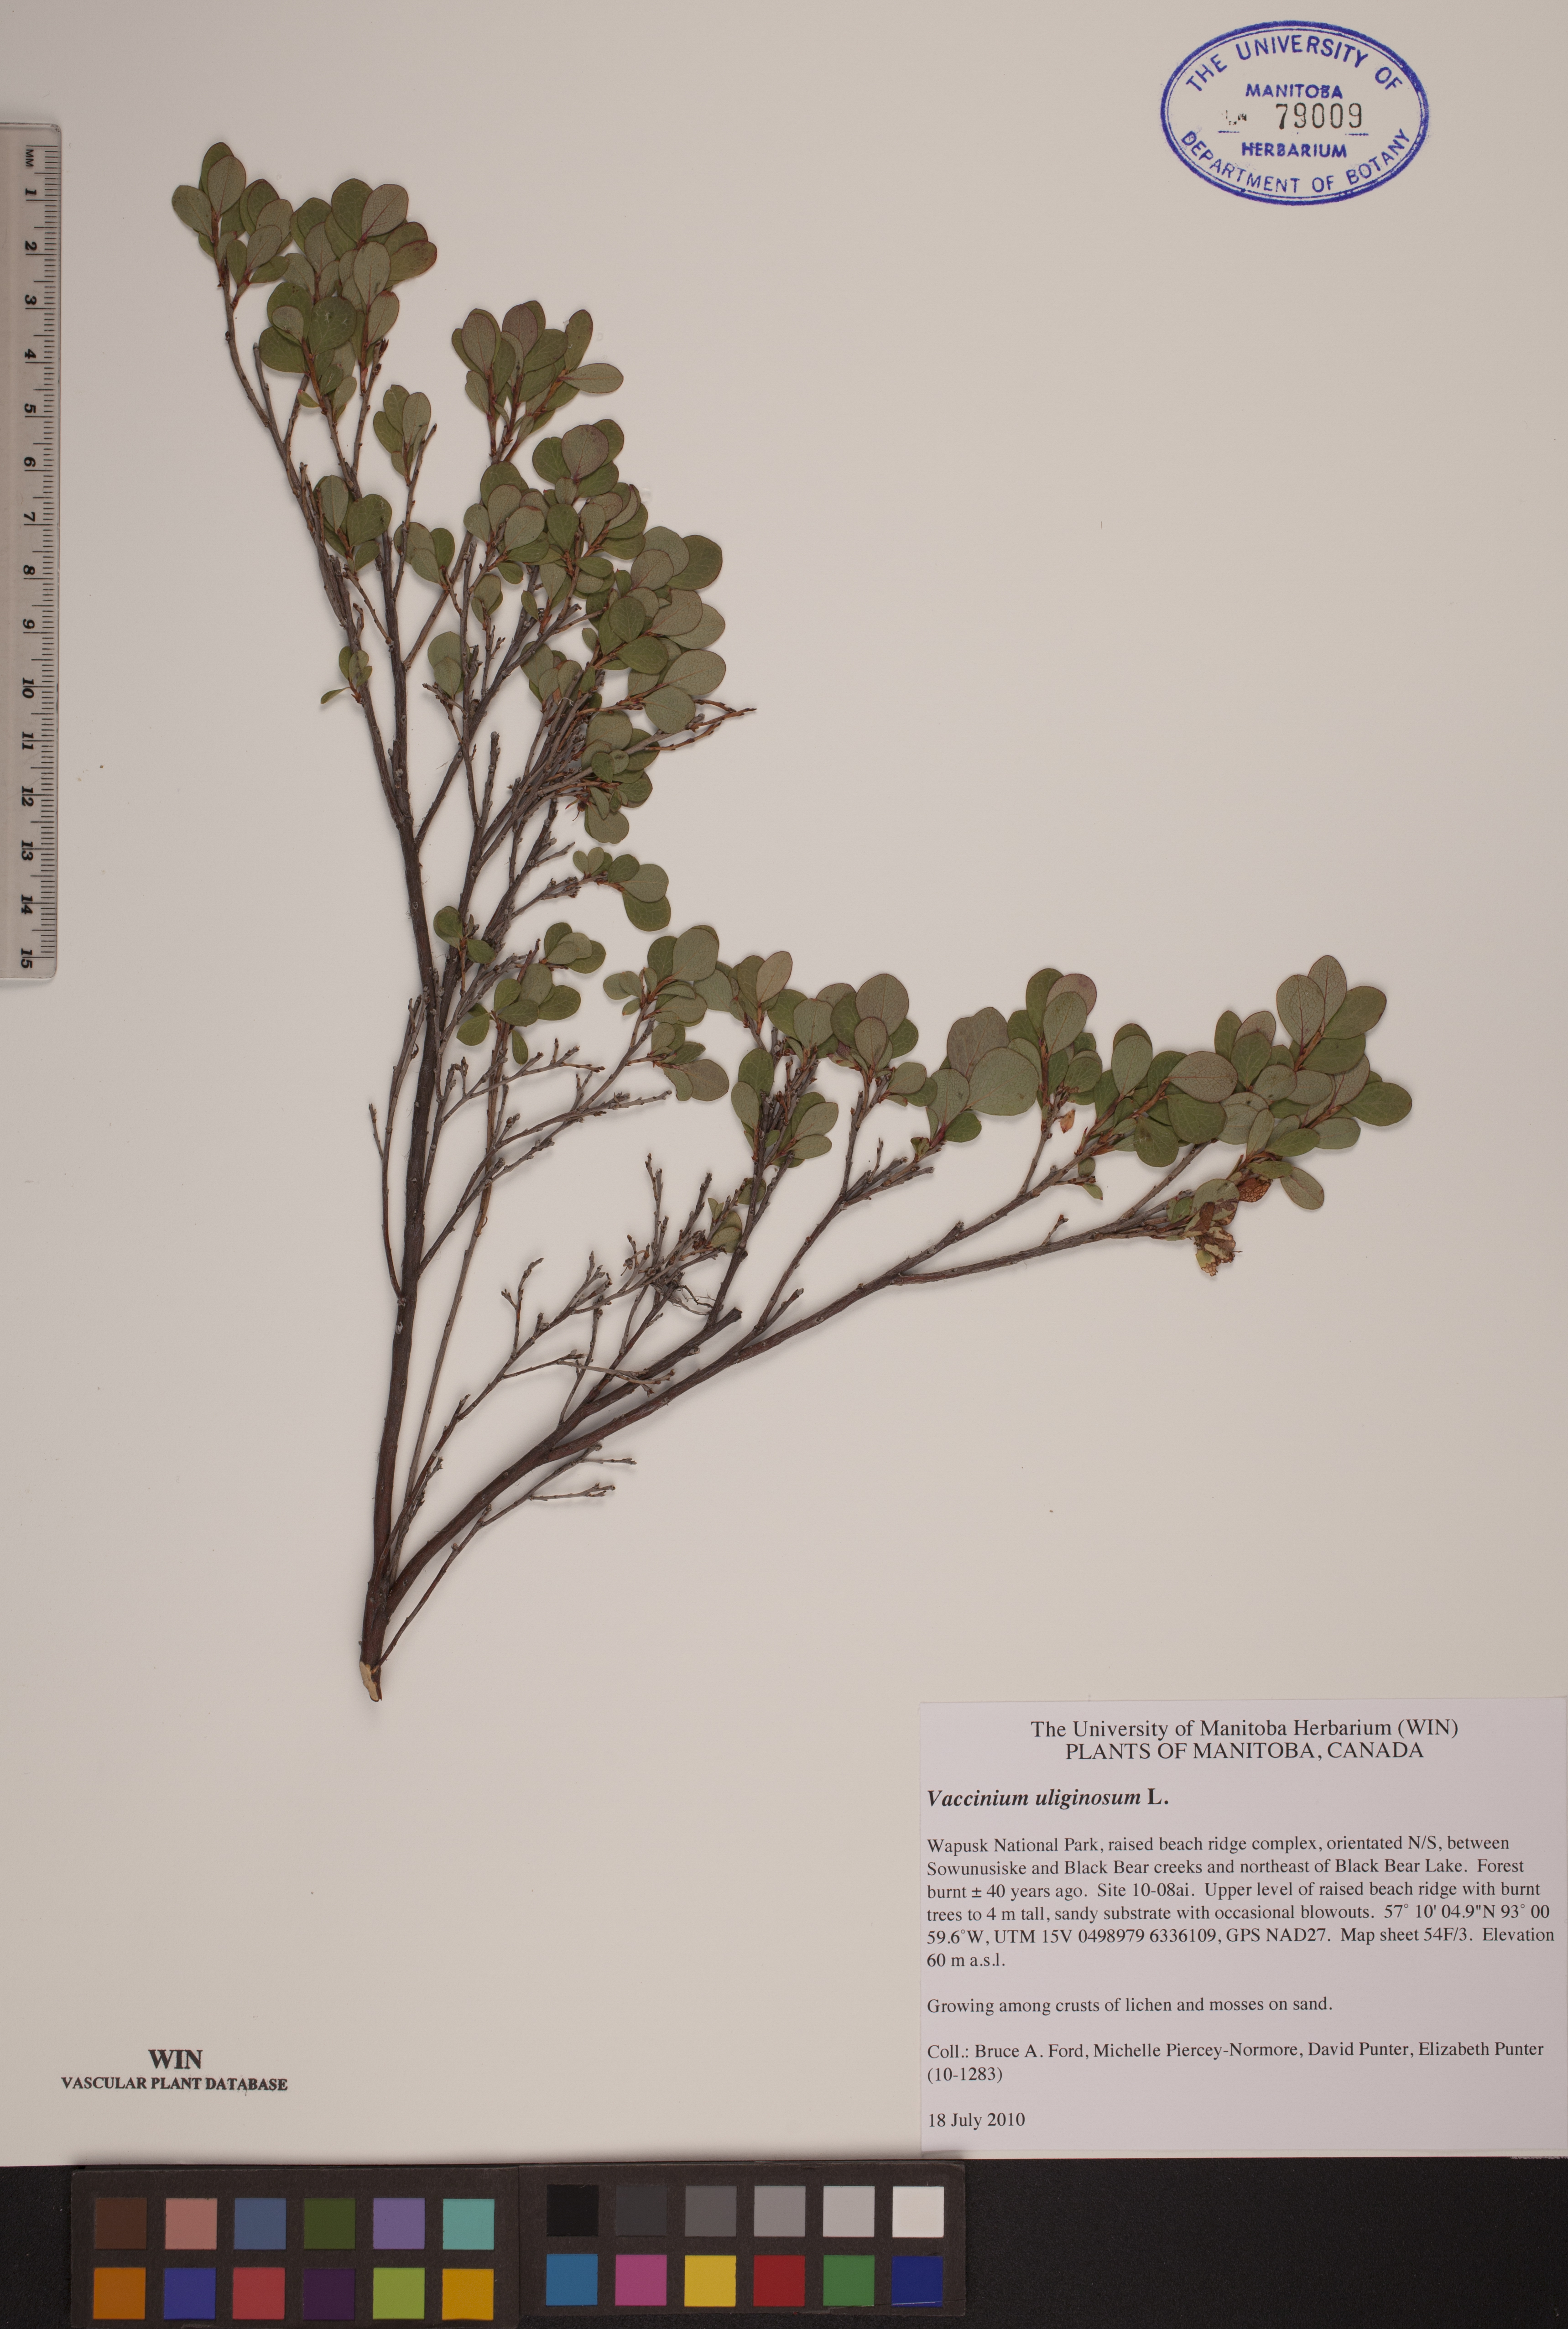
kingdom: Plantae
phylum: Tracheophyta
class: Magnoliopsida
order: Ericales
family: Ericaceae
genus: Vaccinium
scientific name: Vaccinium uliginosum
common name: Bog bilberry
